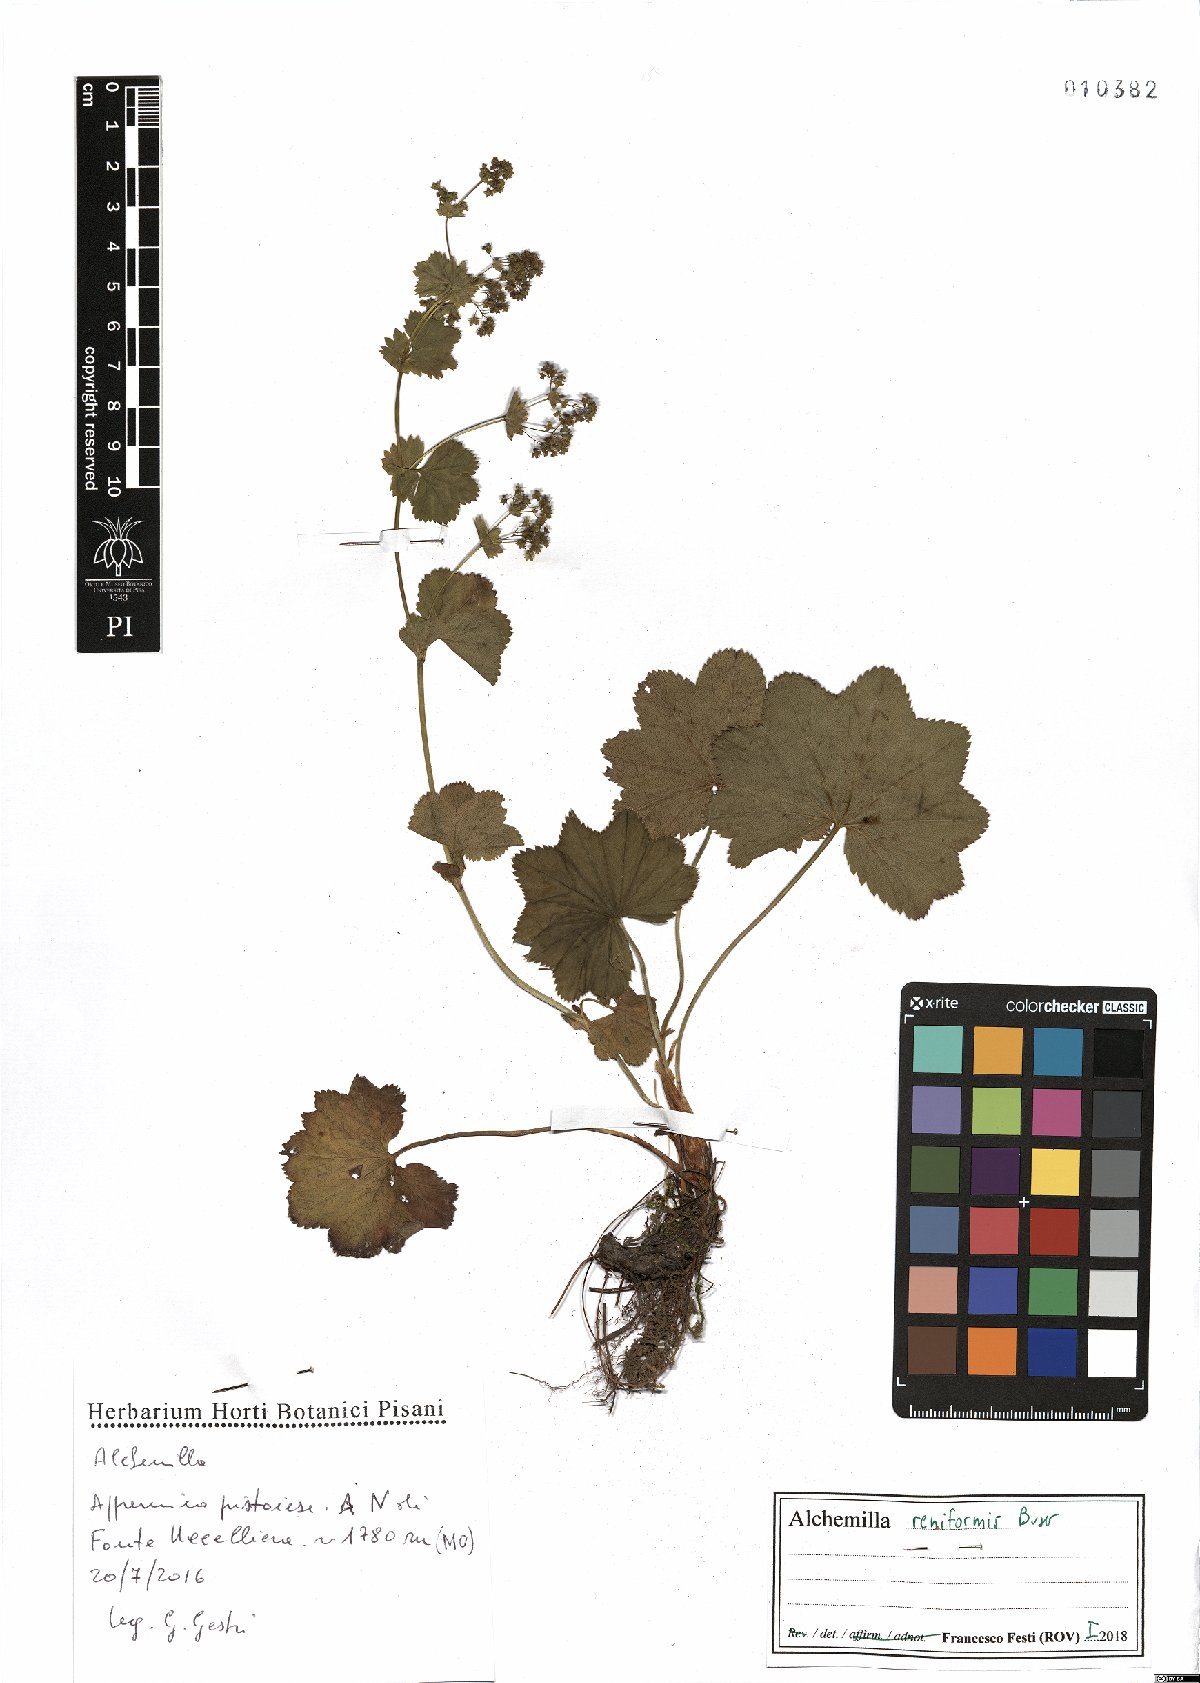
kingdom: Plantae
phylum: Tracheophyta
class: Magnoliopsida
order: Rosales
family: Rosaceae
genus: Alchemilla
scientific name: Alchemilla reniformis
